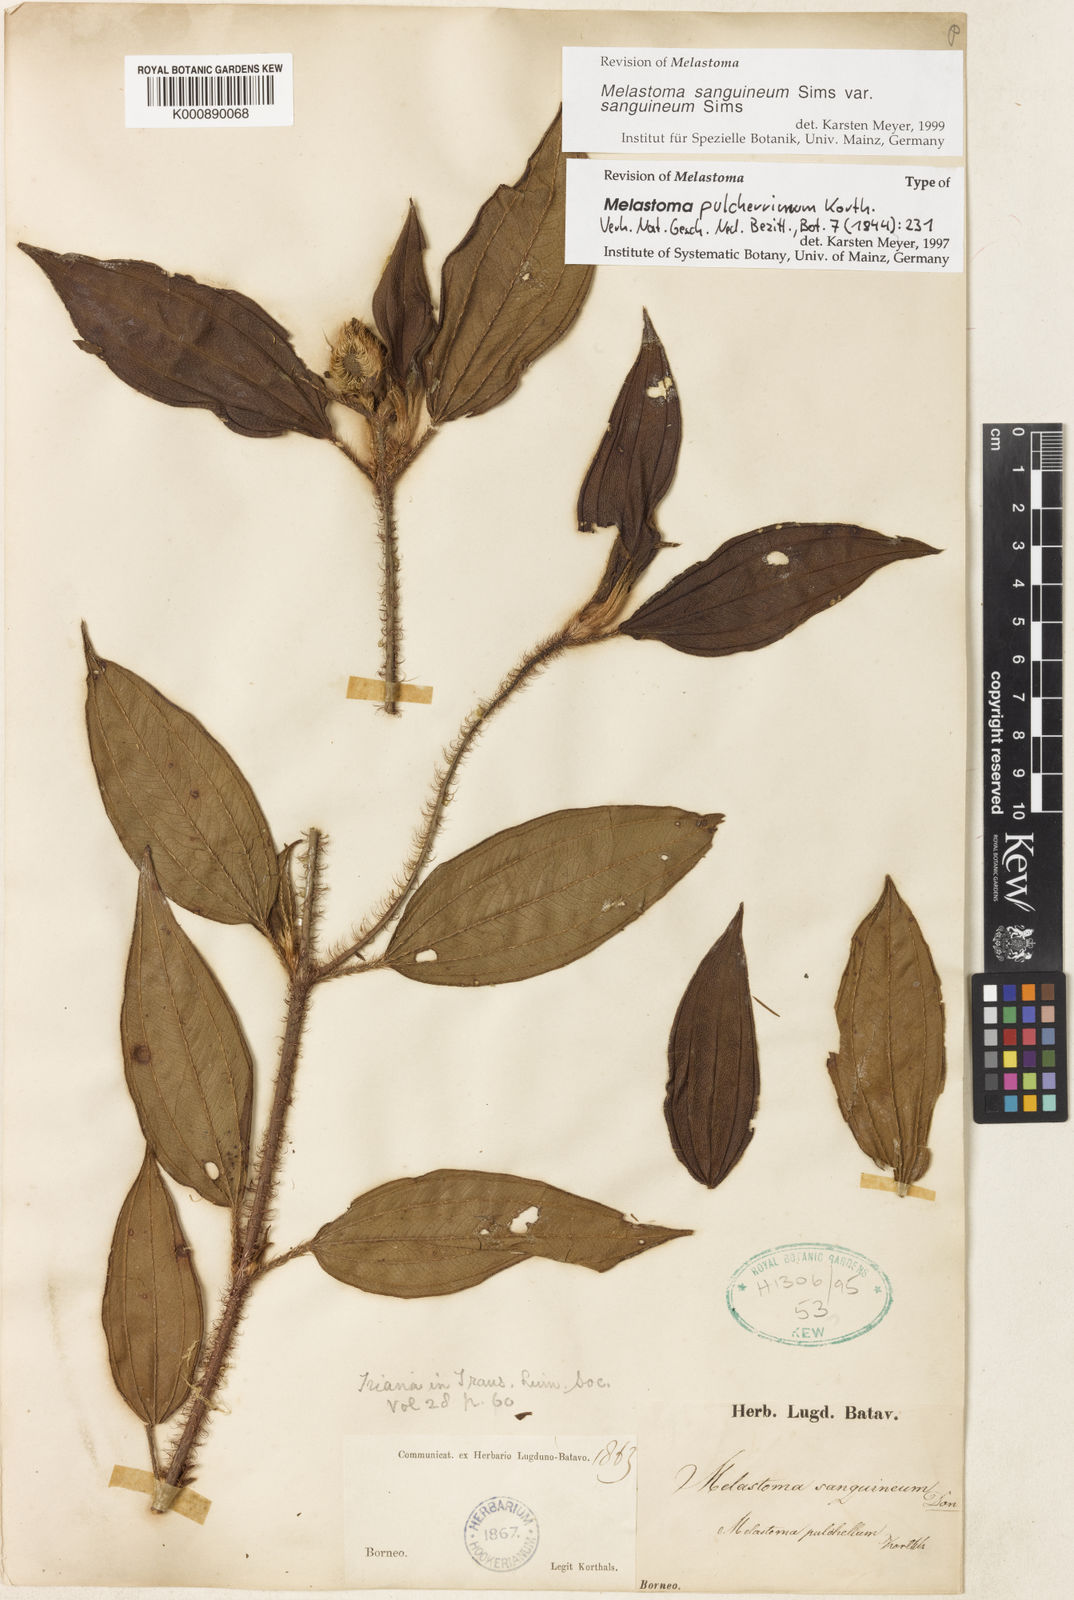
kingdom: Plantae
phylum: Tracheophyta
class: Magnoliopsida
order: Myrtales
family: Melastomataceae
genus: Melastoma
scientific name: Melastoma sanguineum
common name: Red melastome
